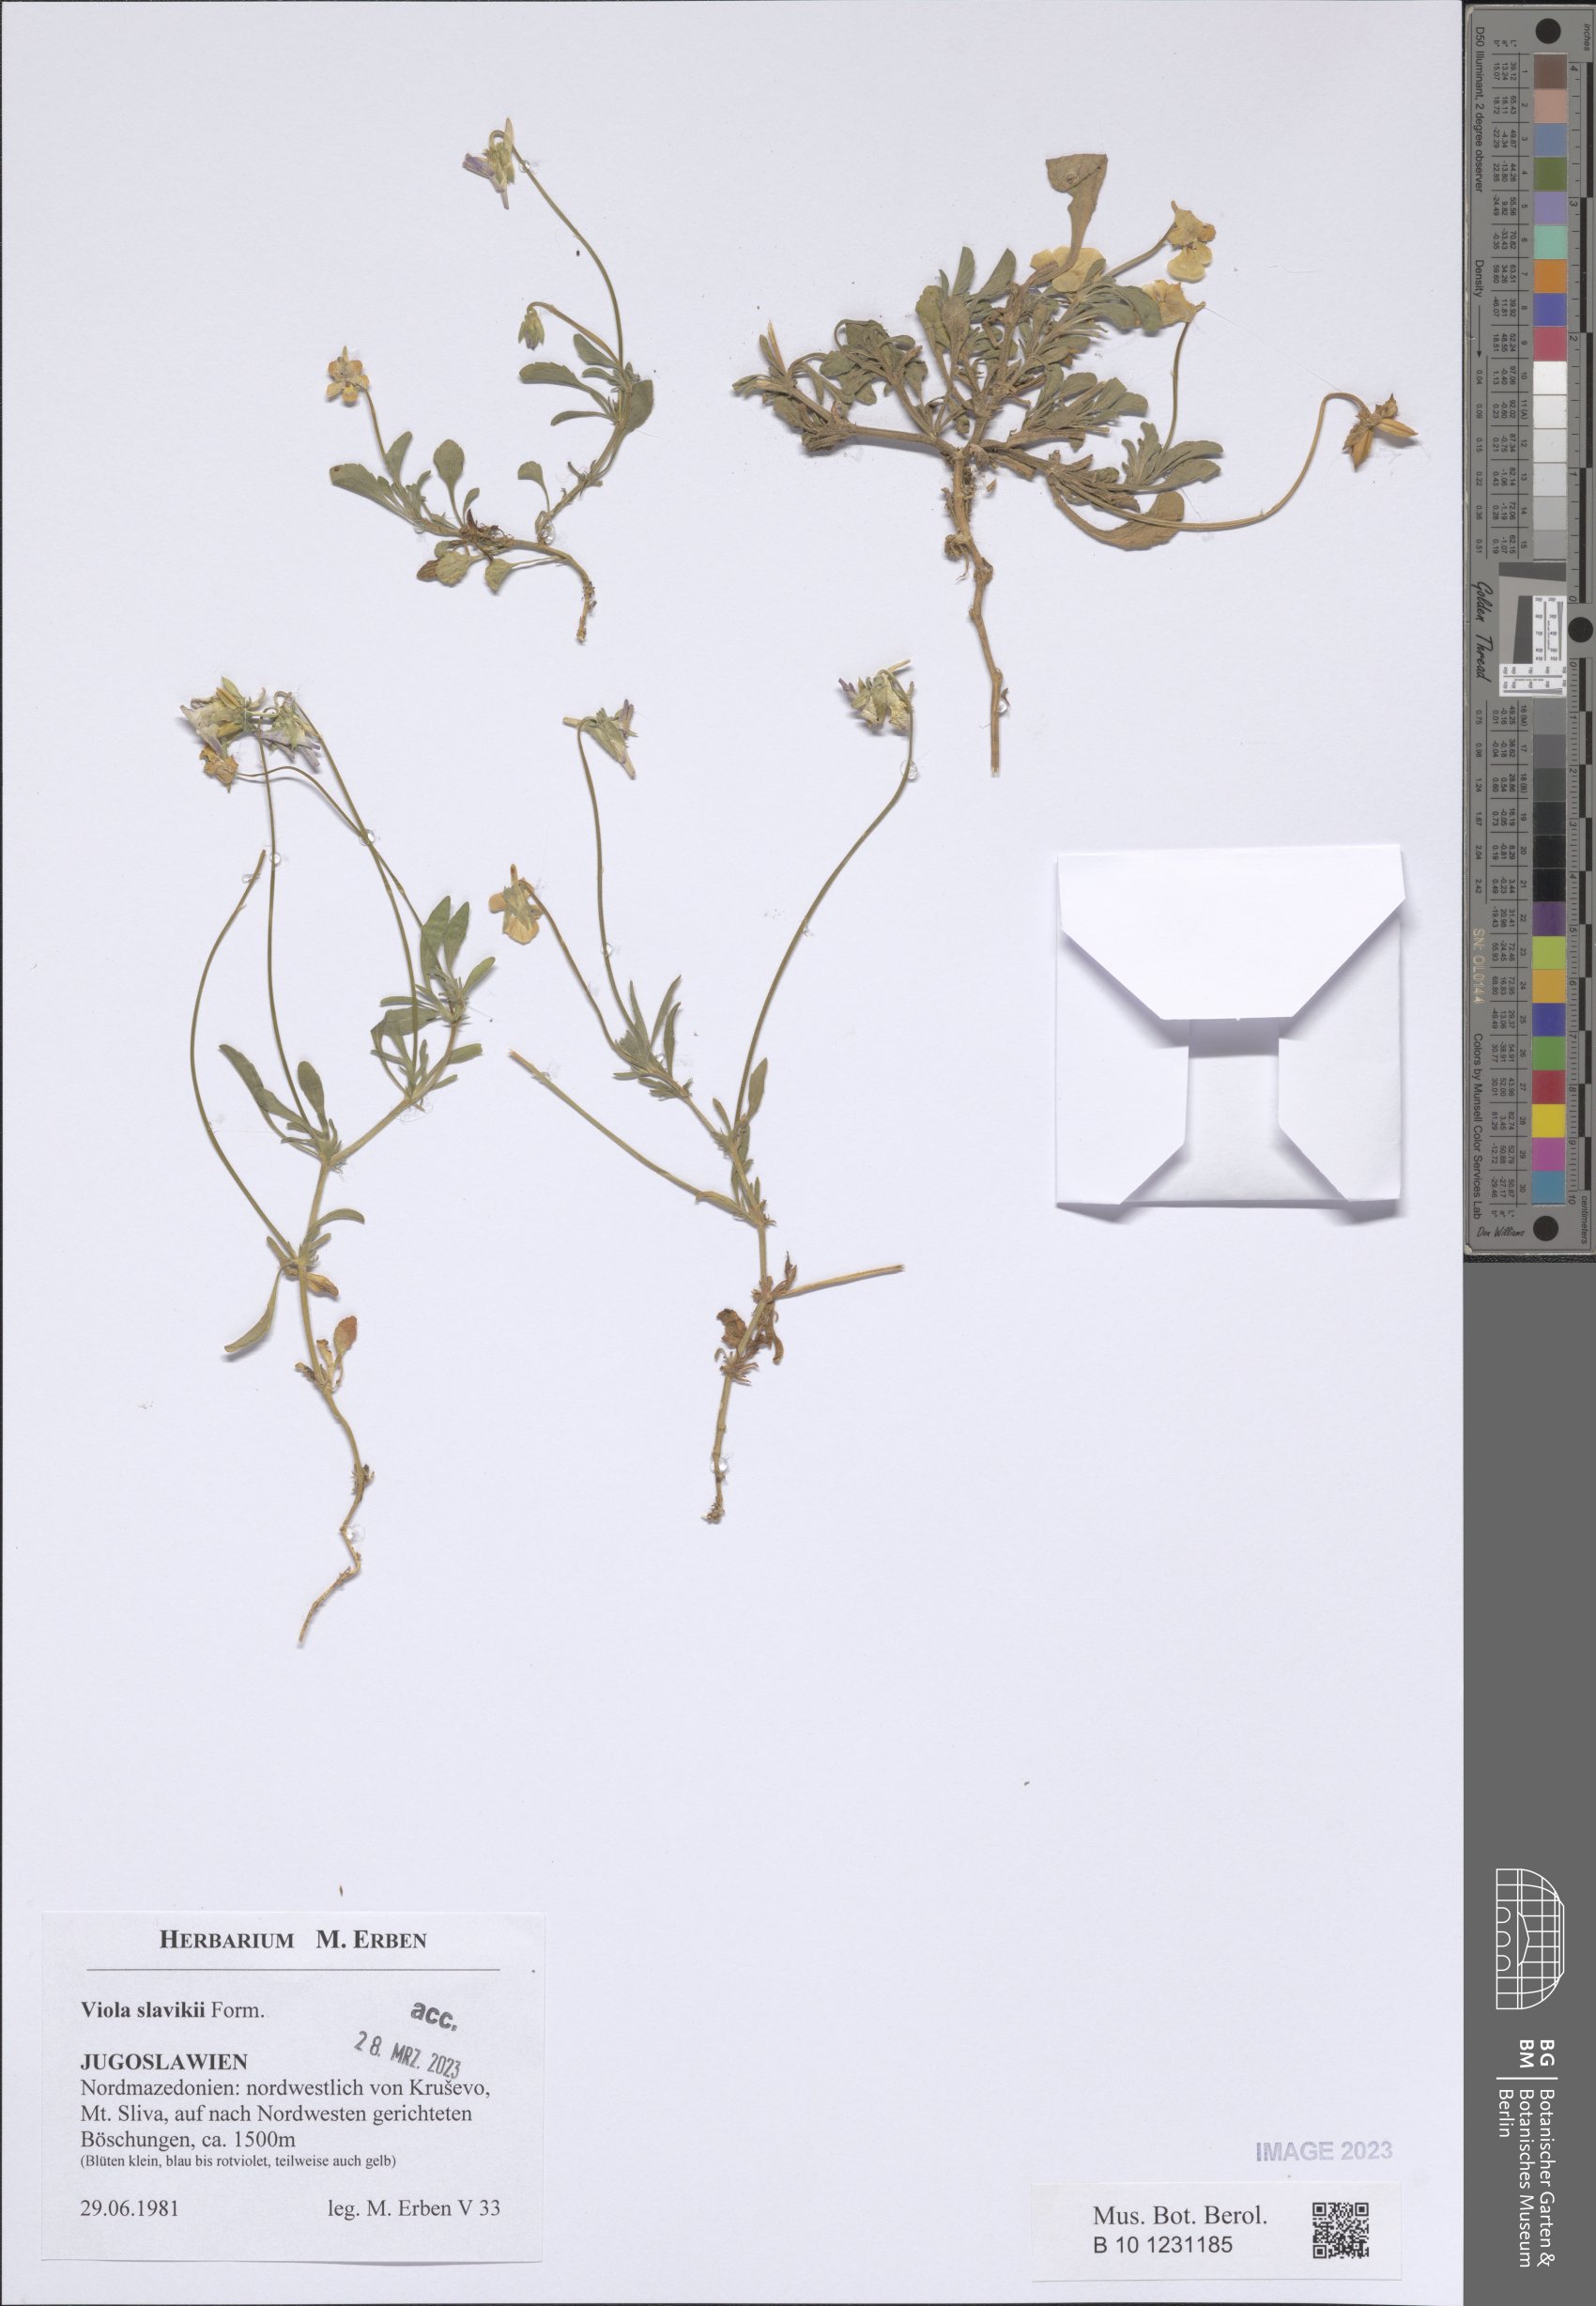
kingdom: Plantae
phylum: Tracheophyta
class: Magnoliopsida
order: Malpighiales
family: Violaceae
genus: Viola
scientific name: Viola slavikii
